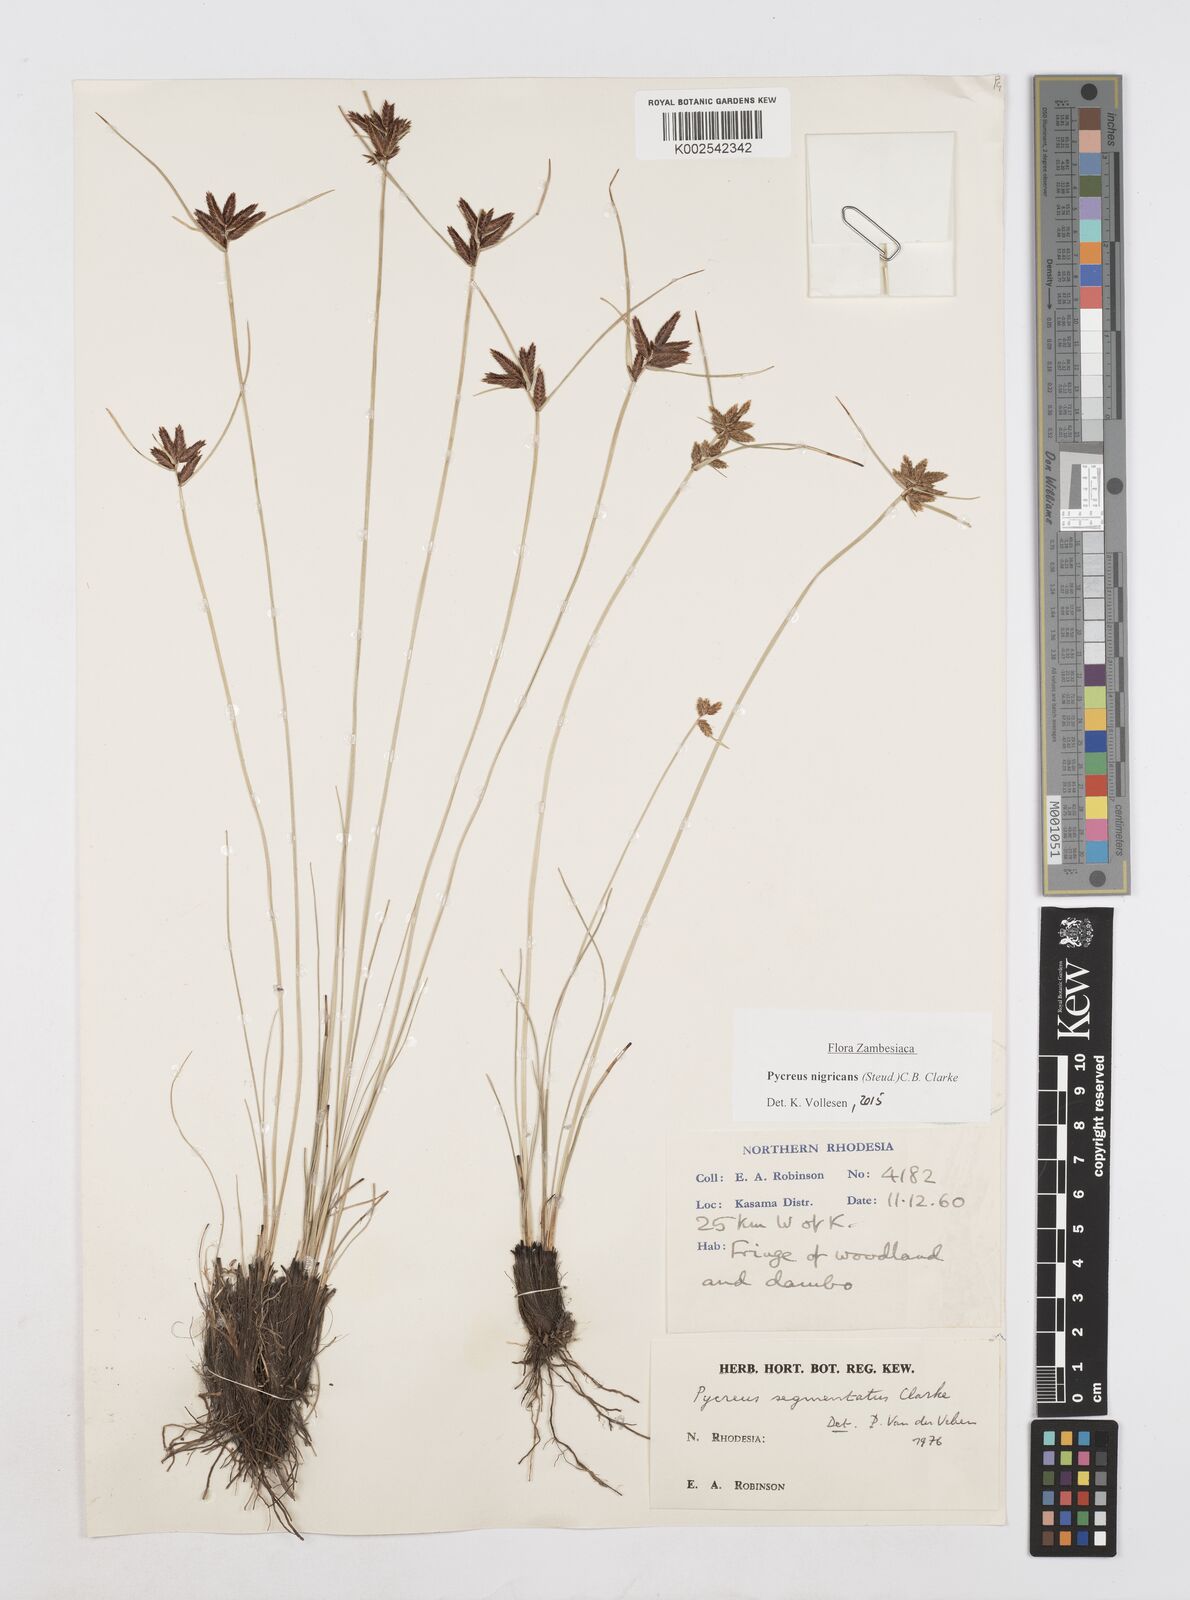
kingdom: Plantae
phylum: Tracheophyta
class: Liliopsida
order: Poales
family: Cyperaceae
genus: Cyperus
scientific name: Cyperus nigricans
